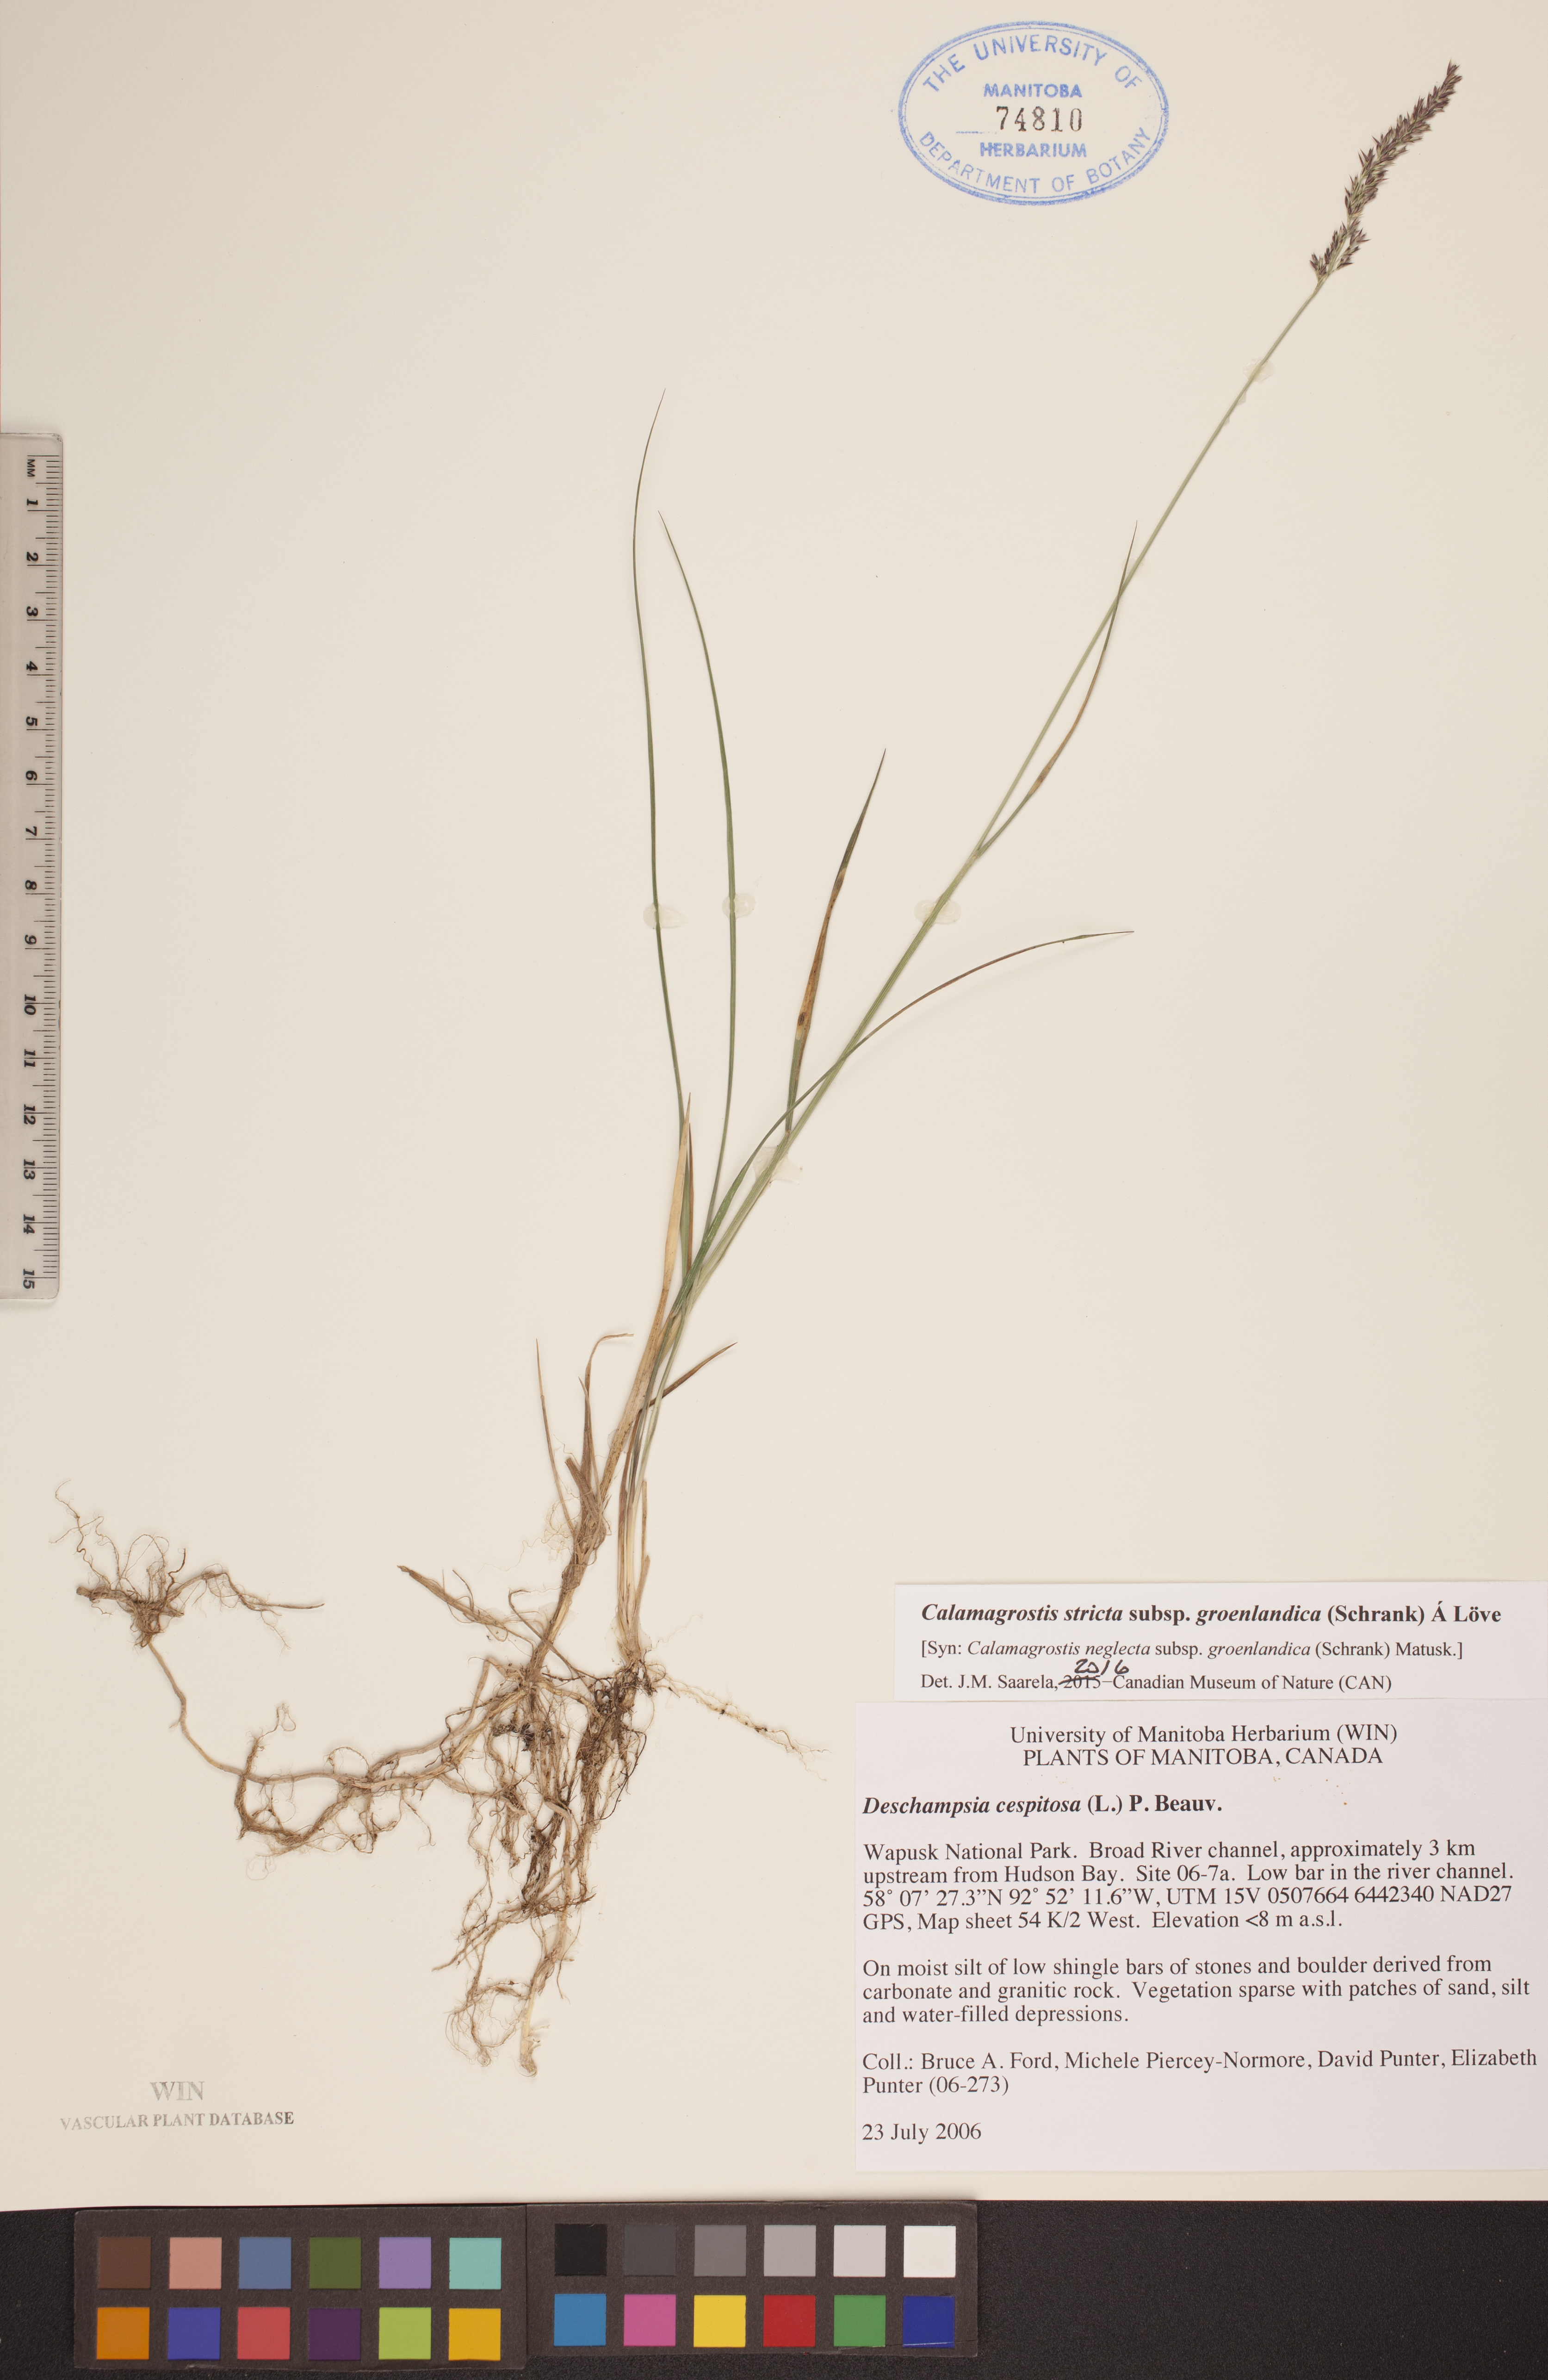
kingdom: Plantae
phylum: Tracheophyta
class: Liliopsida
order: Poales
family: Poaceae
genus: Calamagrostis
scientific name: Calamagrostis stricta
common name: Narrow small-reed
